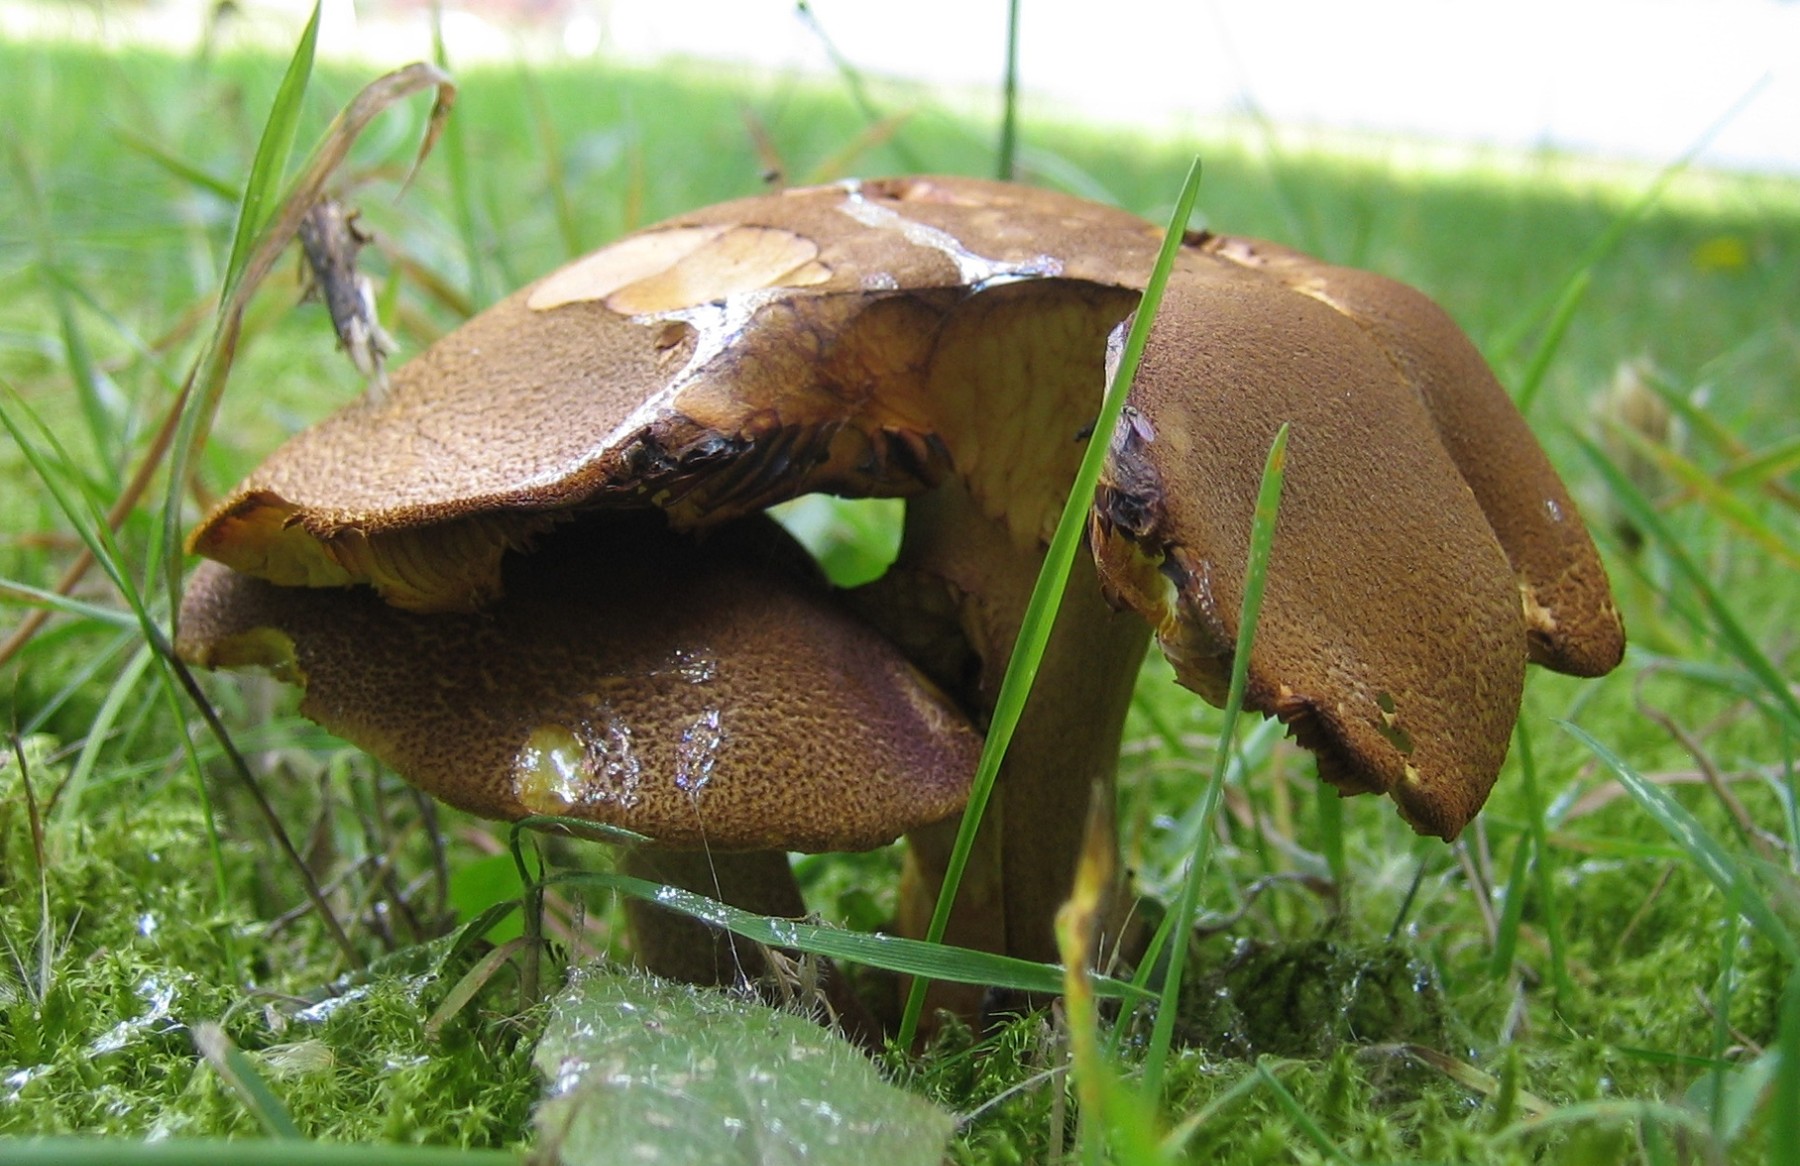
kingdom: Fungi
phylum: Basidiomycota
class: Agaricomycetes
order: Agaricales
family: Tricholomataceae
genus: Tricholomopsis
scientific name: Tricholomopsis rutilans
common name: purpur-væbnerhat
